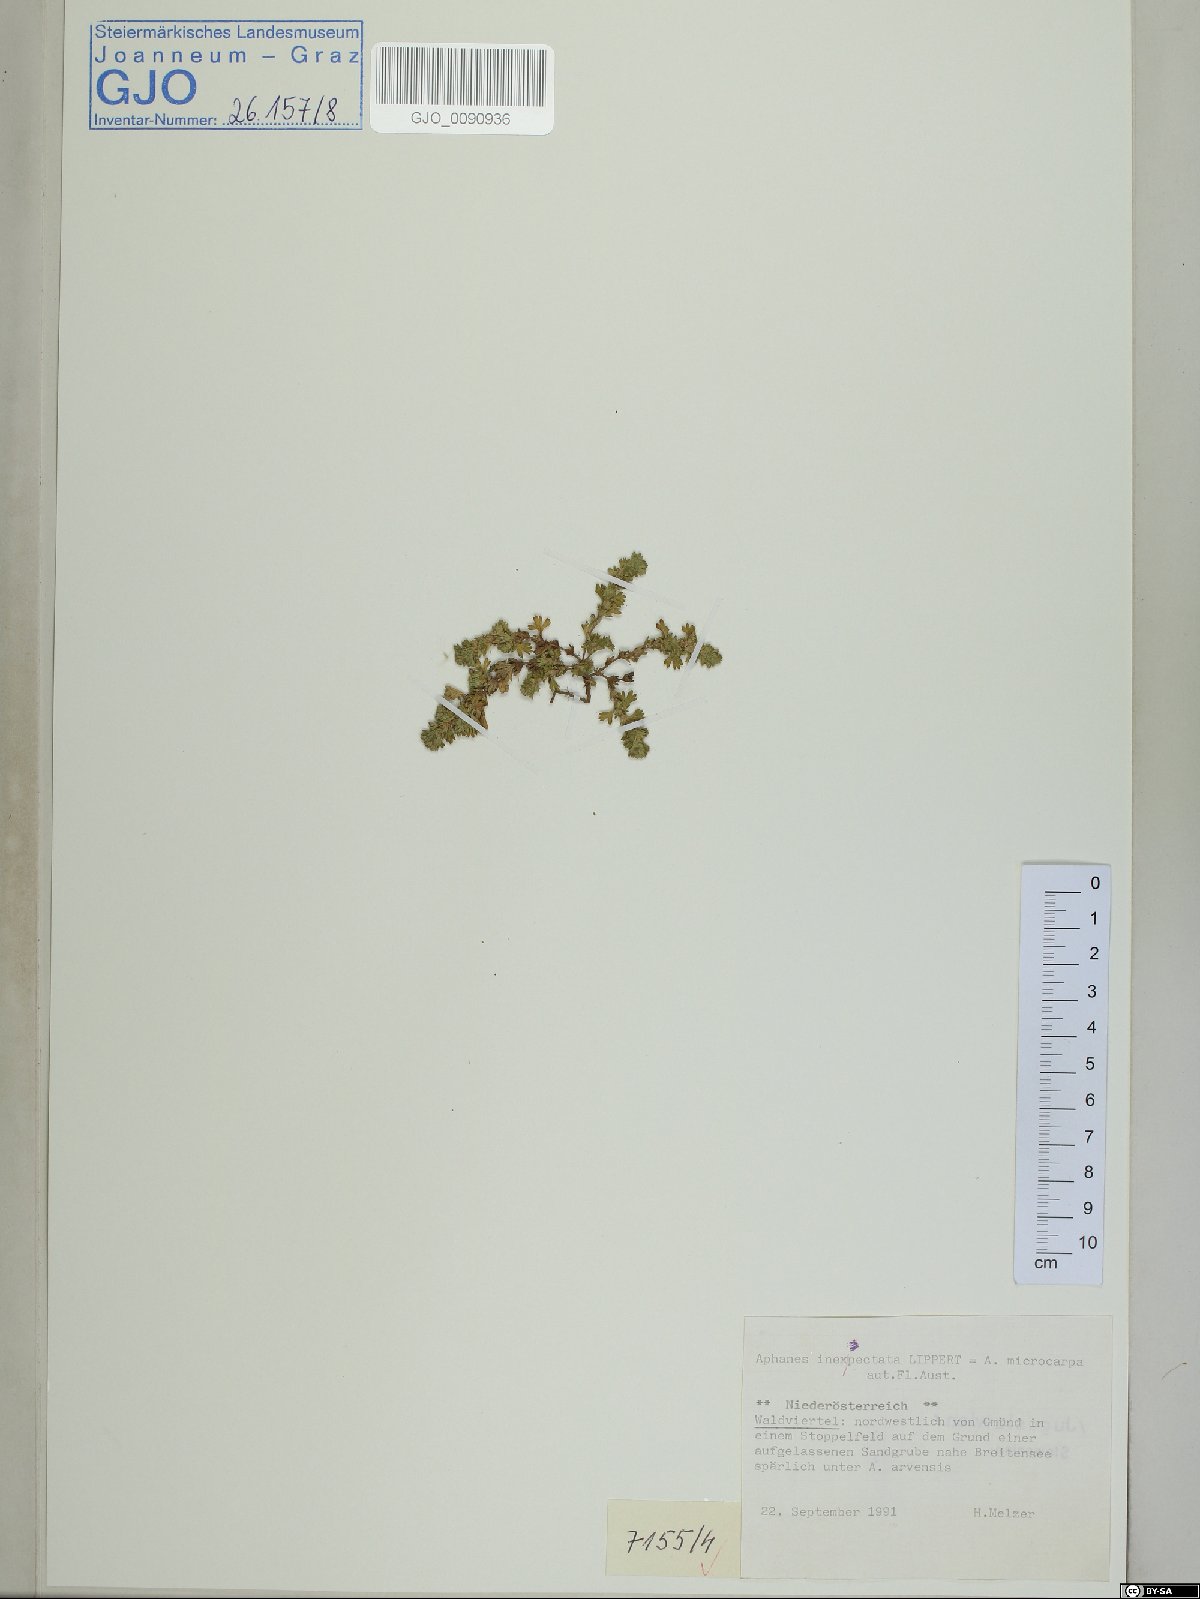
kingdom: Plantae
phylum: Tracheophyta
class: Magnoliopsida
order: Rosales
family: Rosaceae
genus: Aphanes
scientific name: Aphanes australis
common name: Slender parsley-piert
